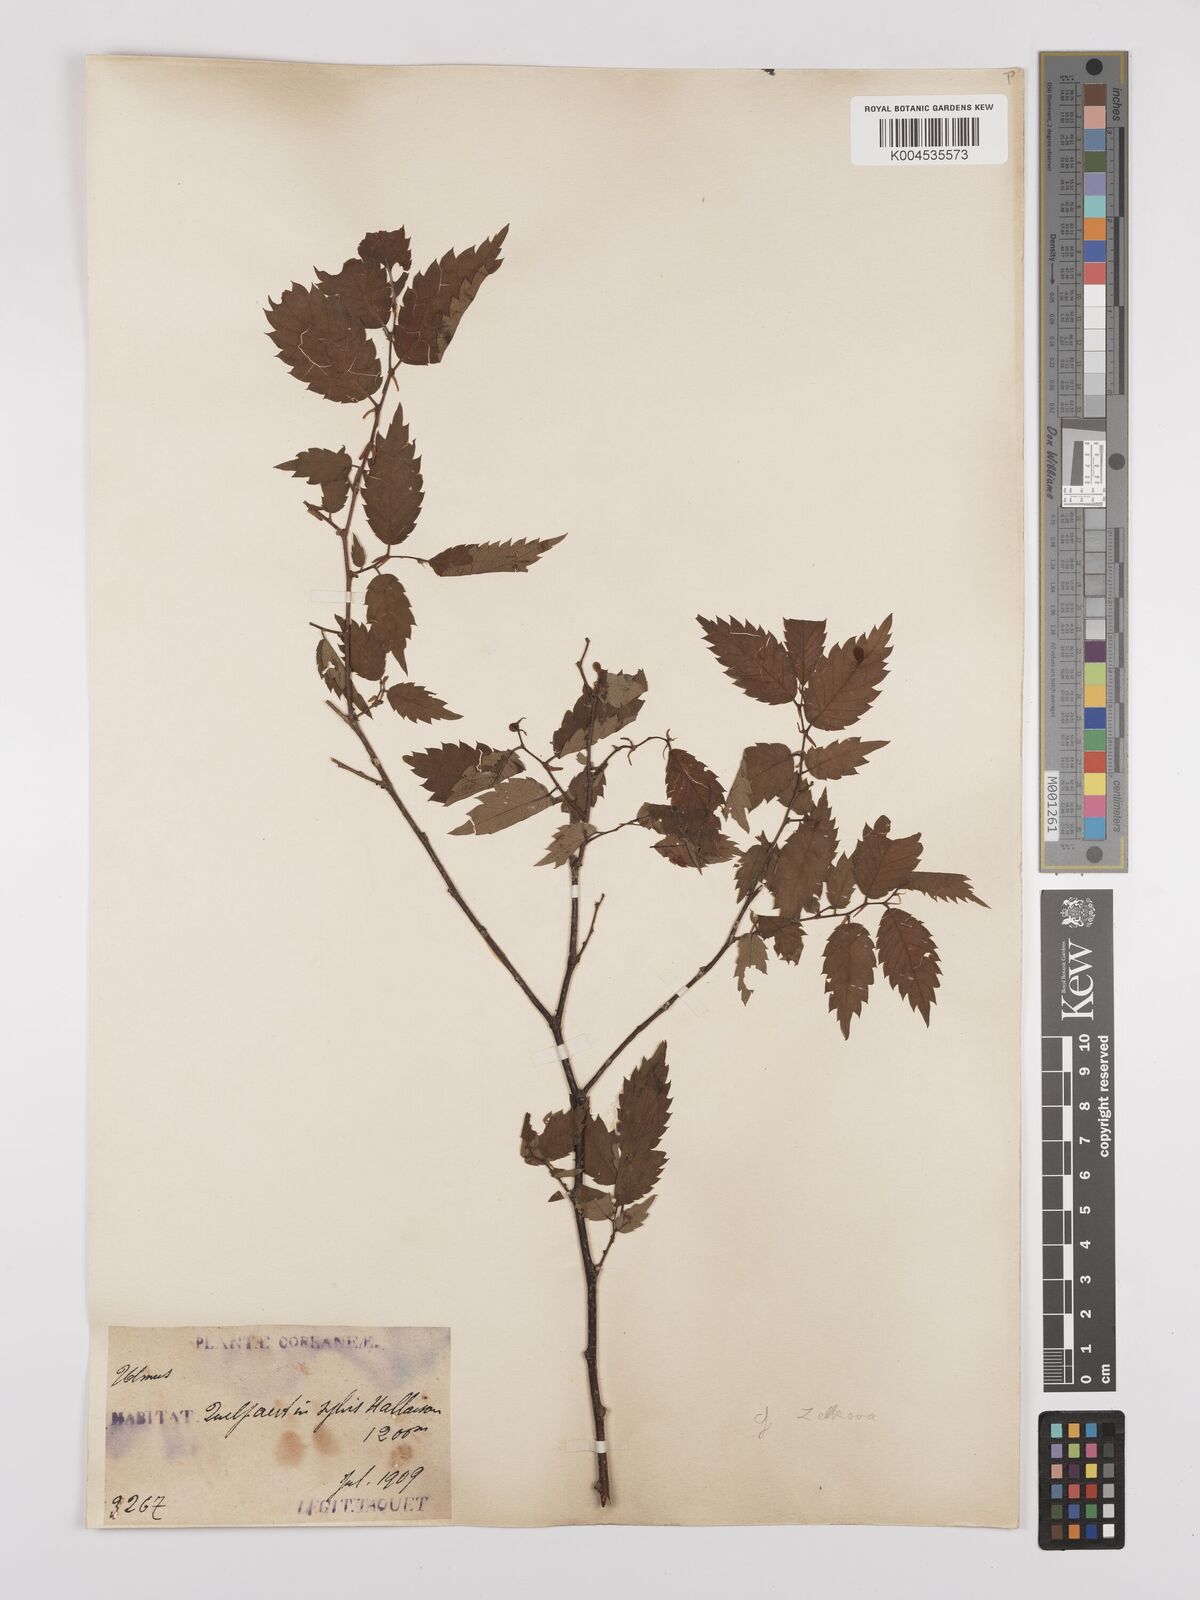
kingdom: Plantae
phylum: Tracheophyta
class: Magnoliopsida
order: Rosales
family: Ulmaceae
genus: Zelkova
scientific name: Zelkova
